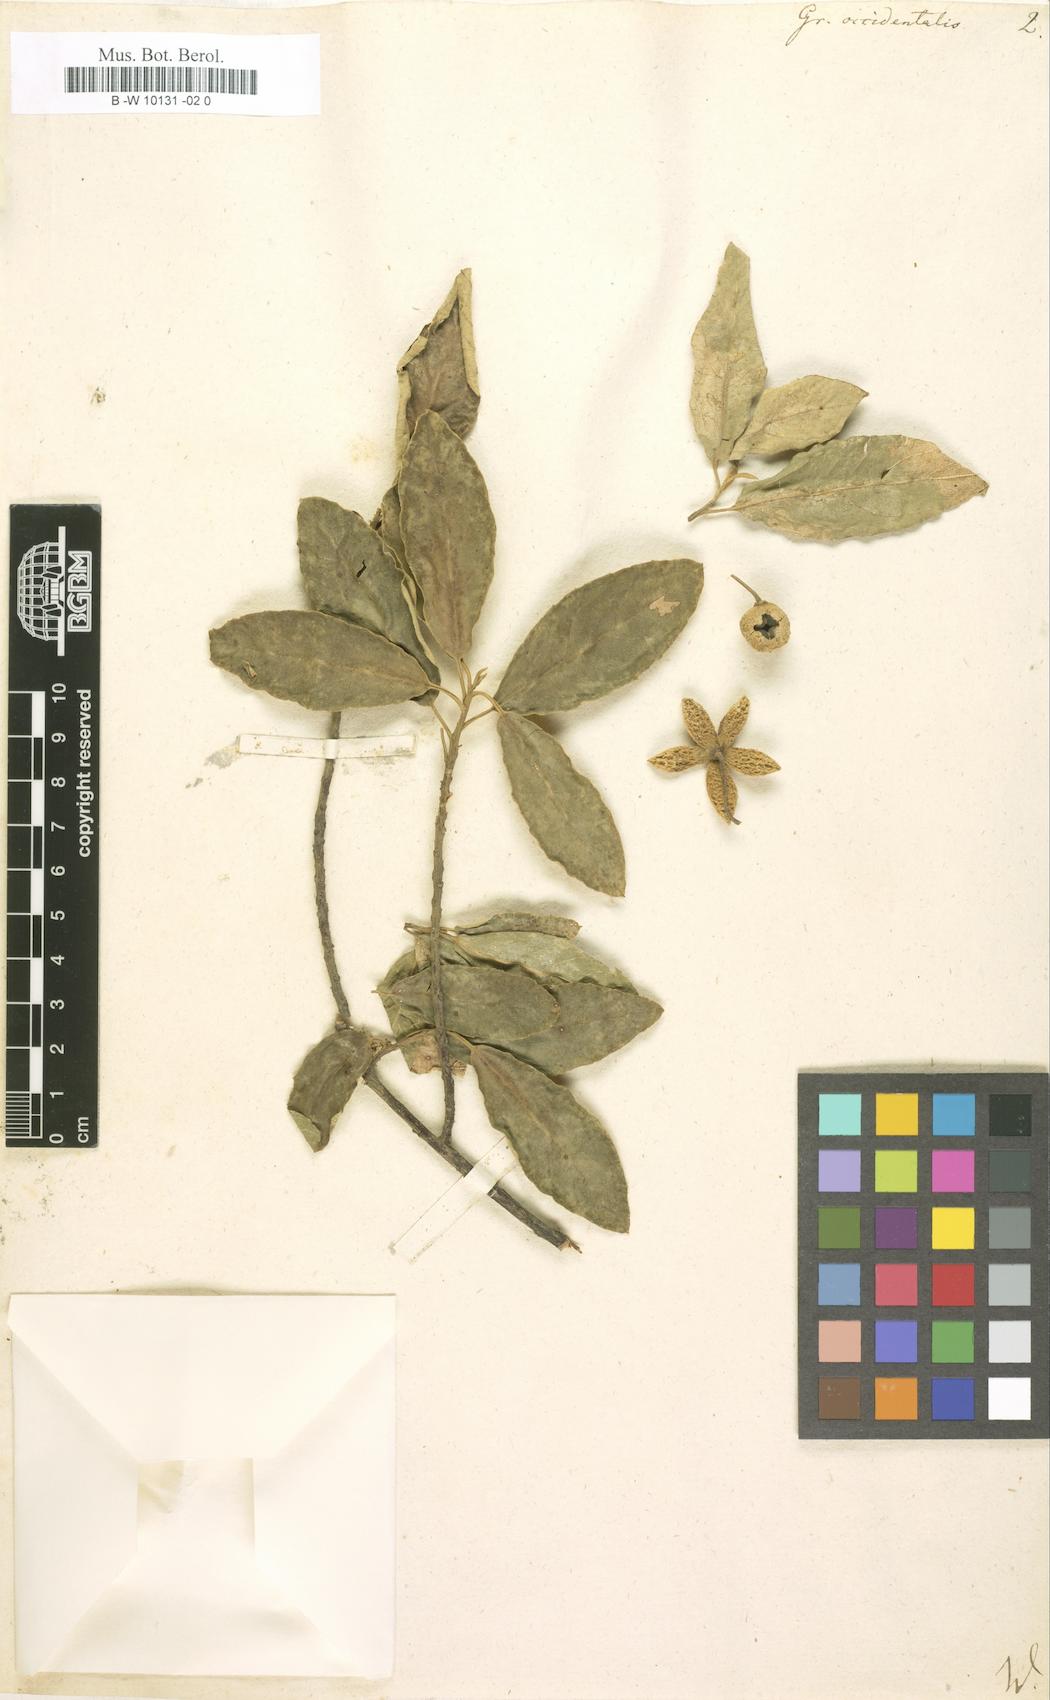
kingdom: Plantae
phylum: Tracheophyta
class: Magnoliopsida
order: Malvales
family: Malvaceae
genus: Grewia
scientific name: Grewia occidentalis
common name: Crossberry
